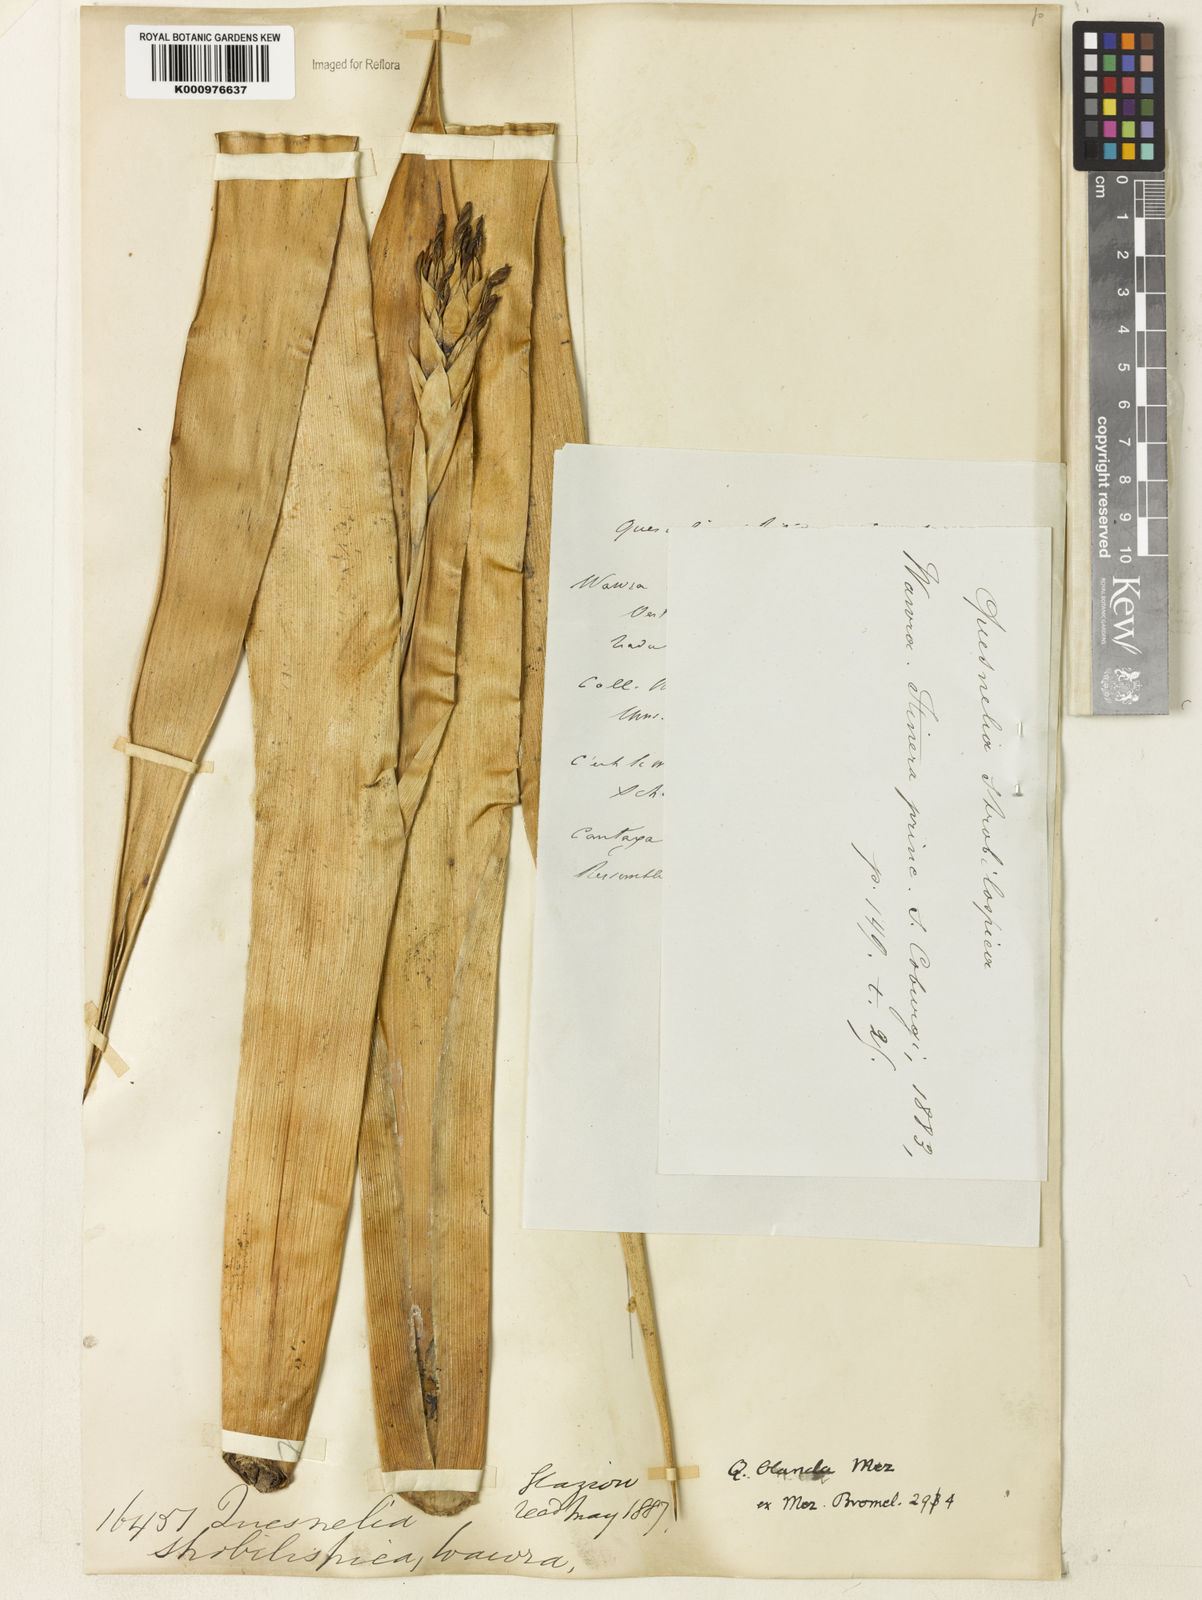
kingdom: Plantae
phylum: Tracheophyta
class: Liliopsida
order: Poales
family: Bromeliaceae
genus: Quesnelia
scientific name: Quesnelia blanda
